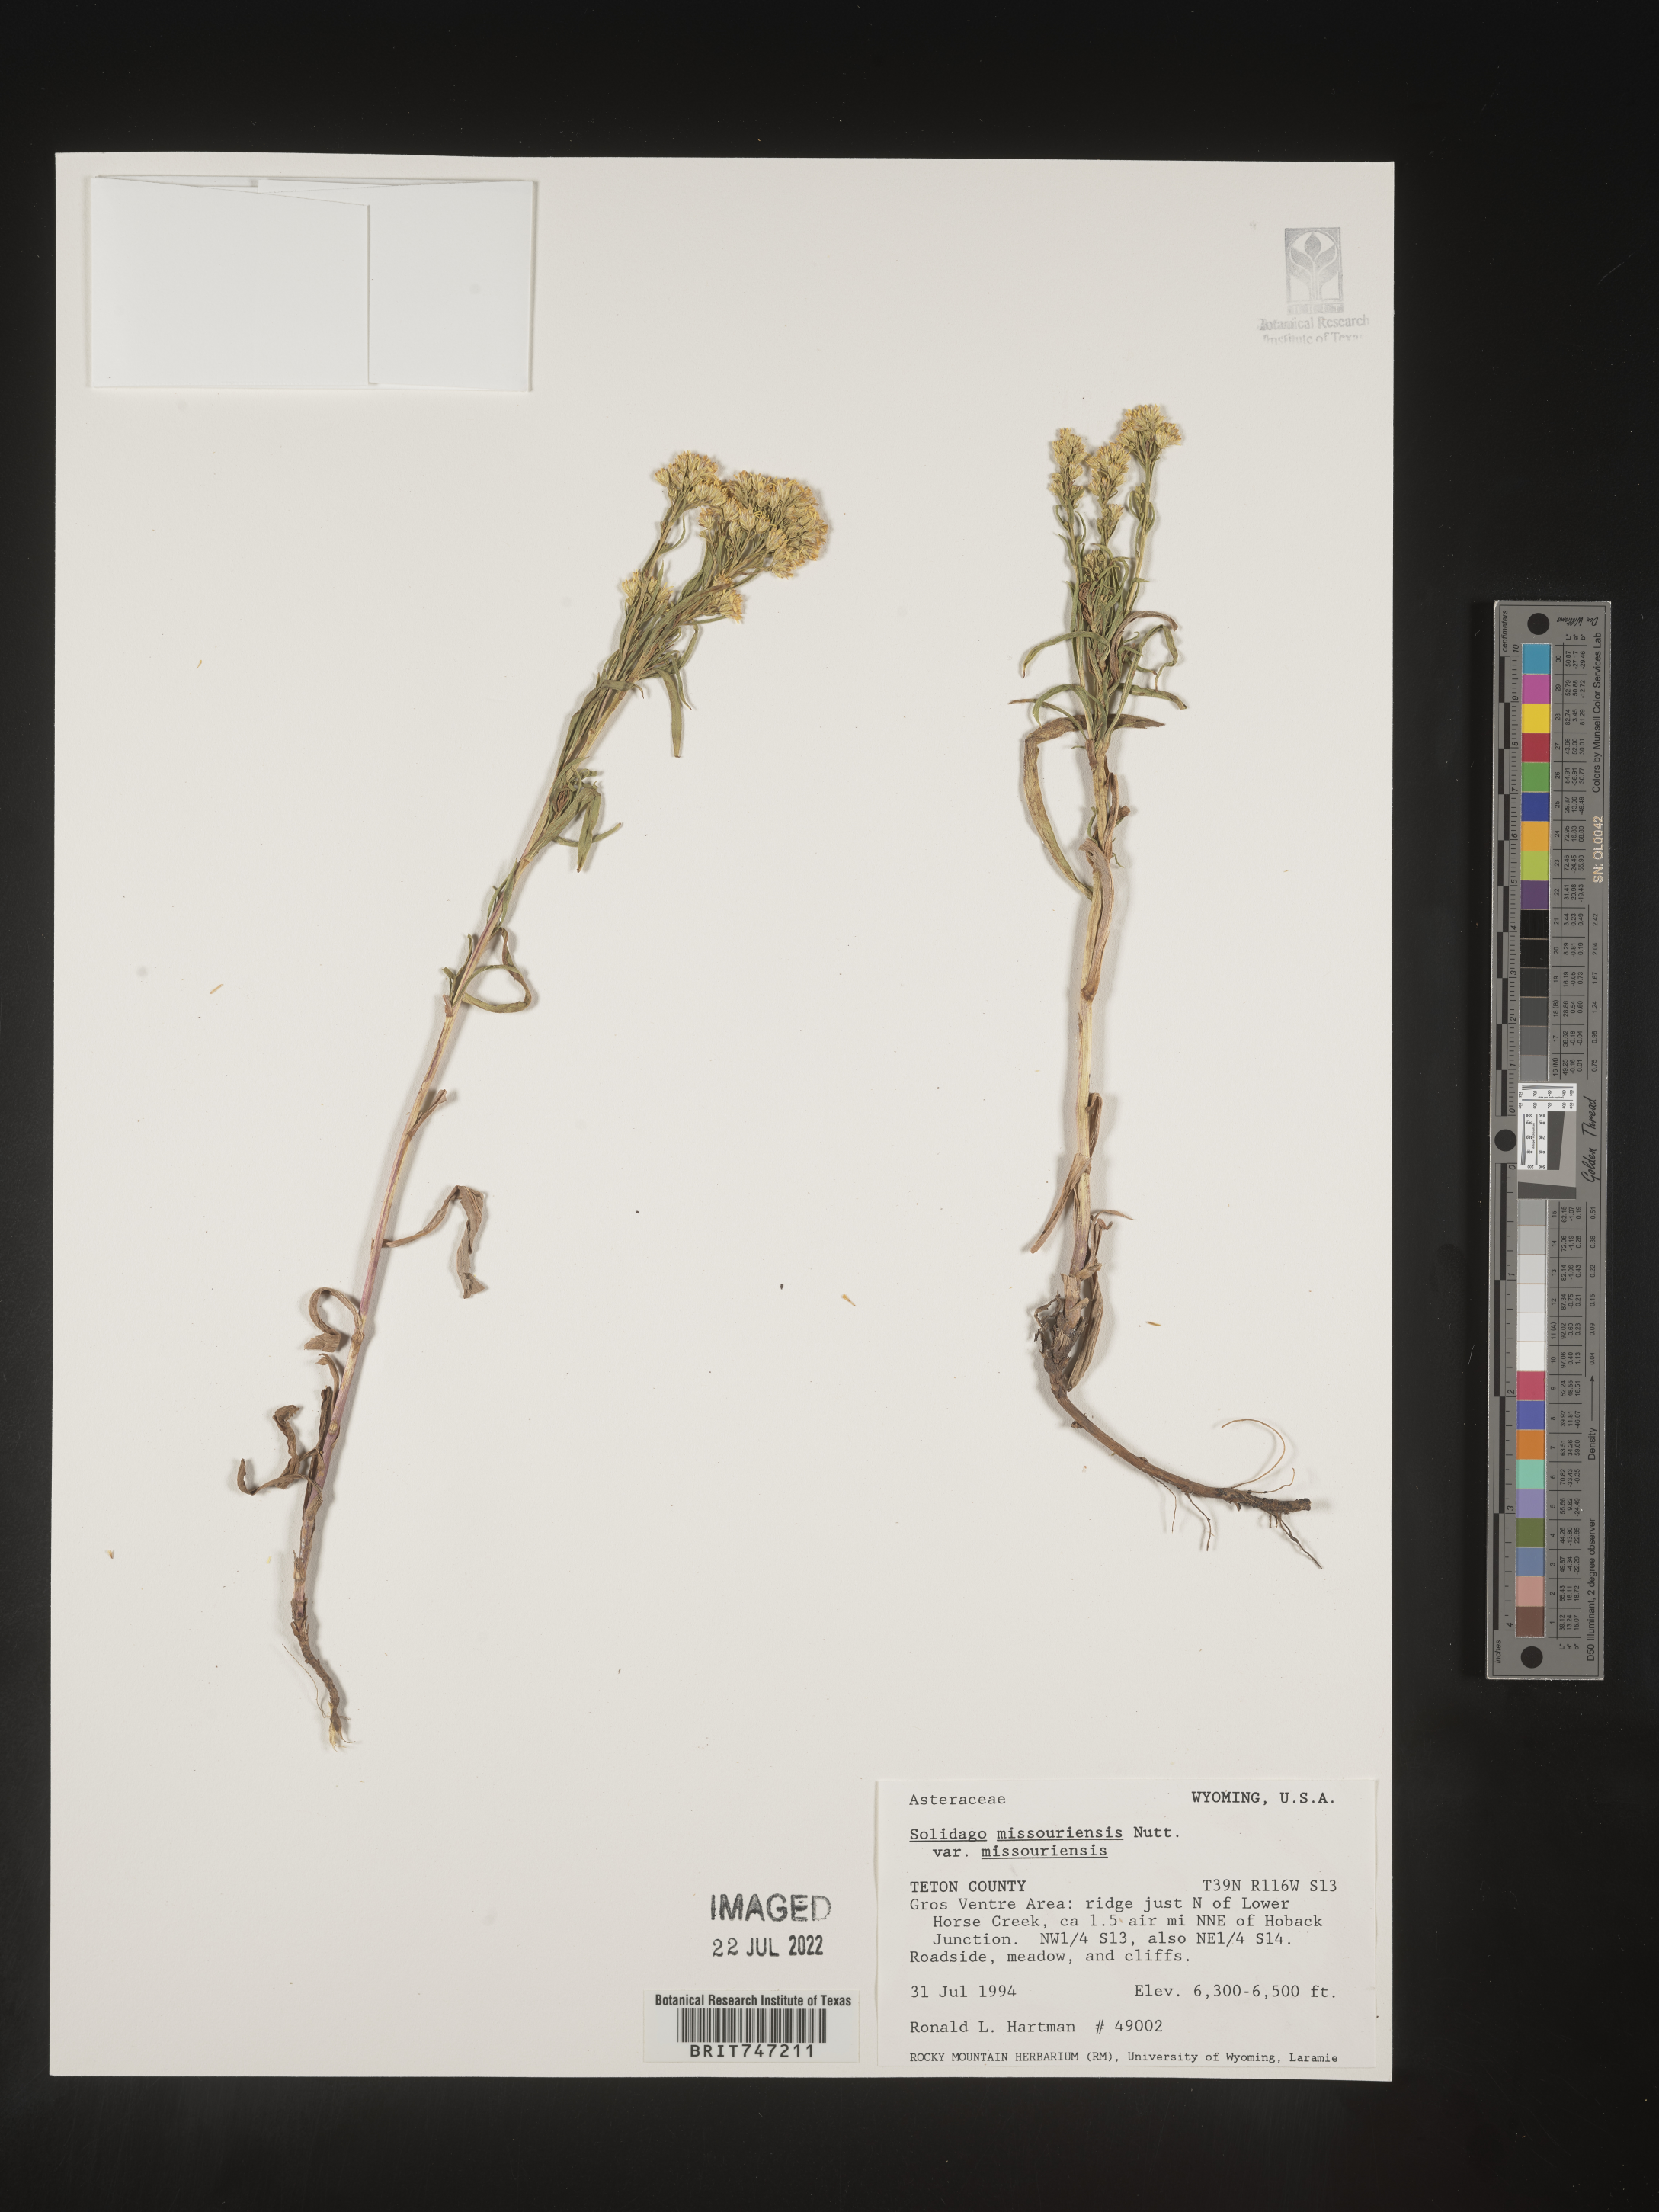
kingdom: Plantae
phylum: Tracheophyta
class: Magnoliopsida
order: Asterales
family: Asteraceae
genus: Solidago
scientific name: Solidago missouriensis
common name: Prairie goldenrod
